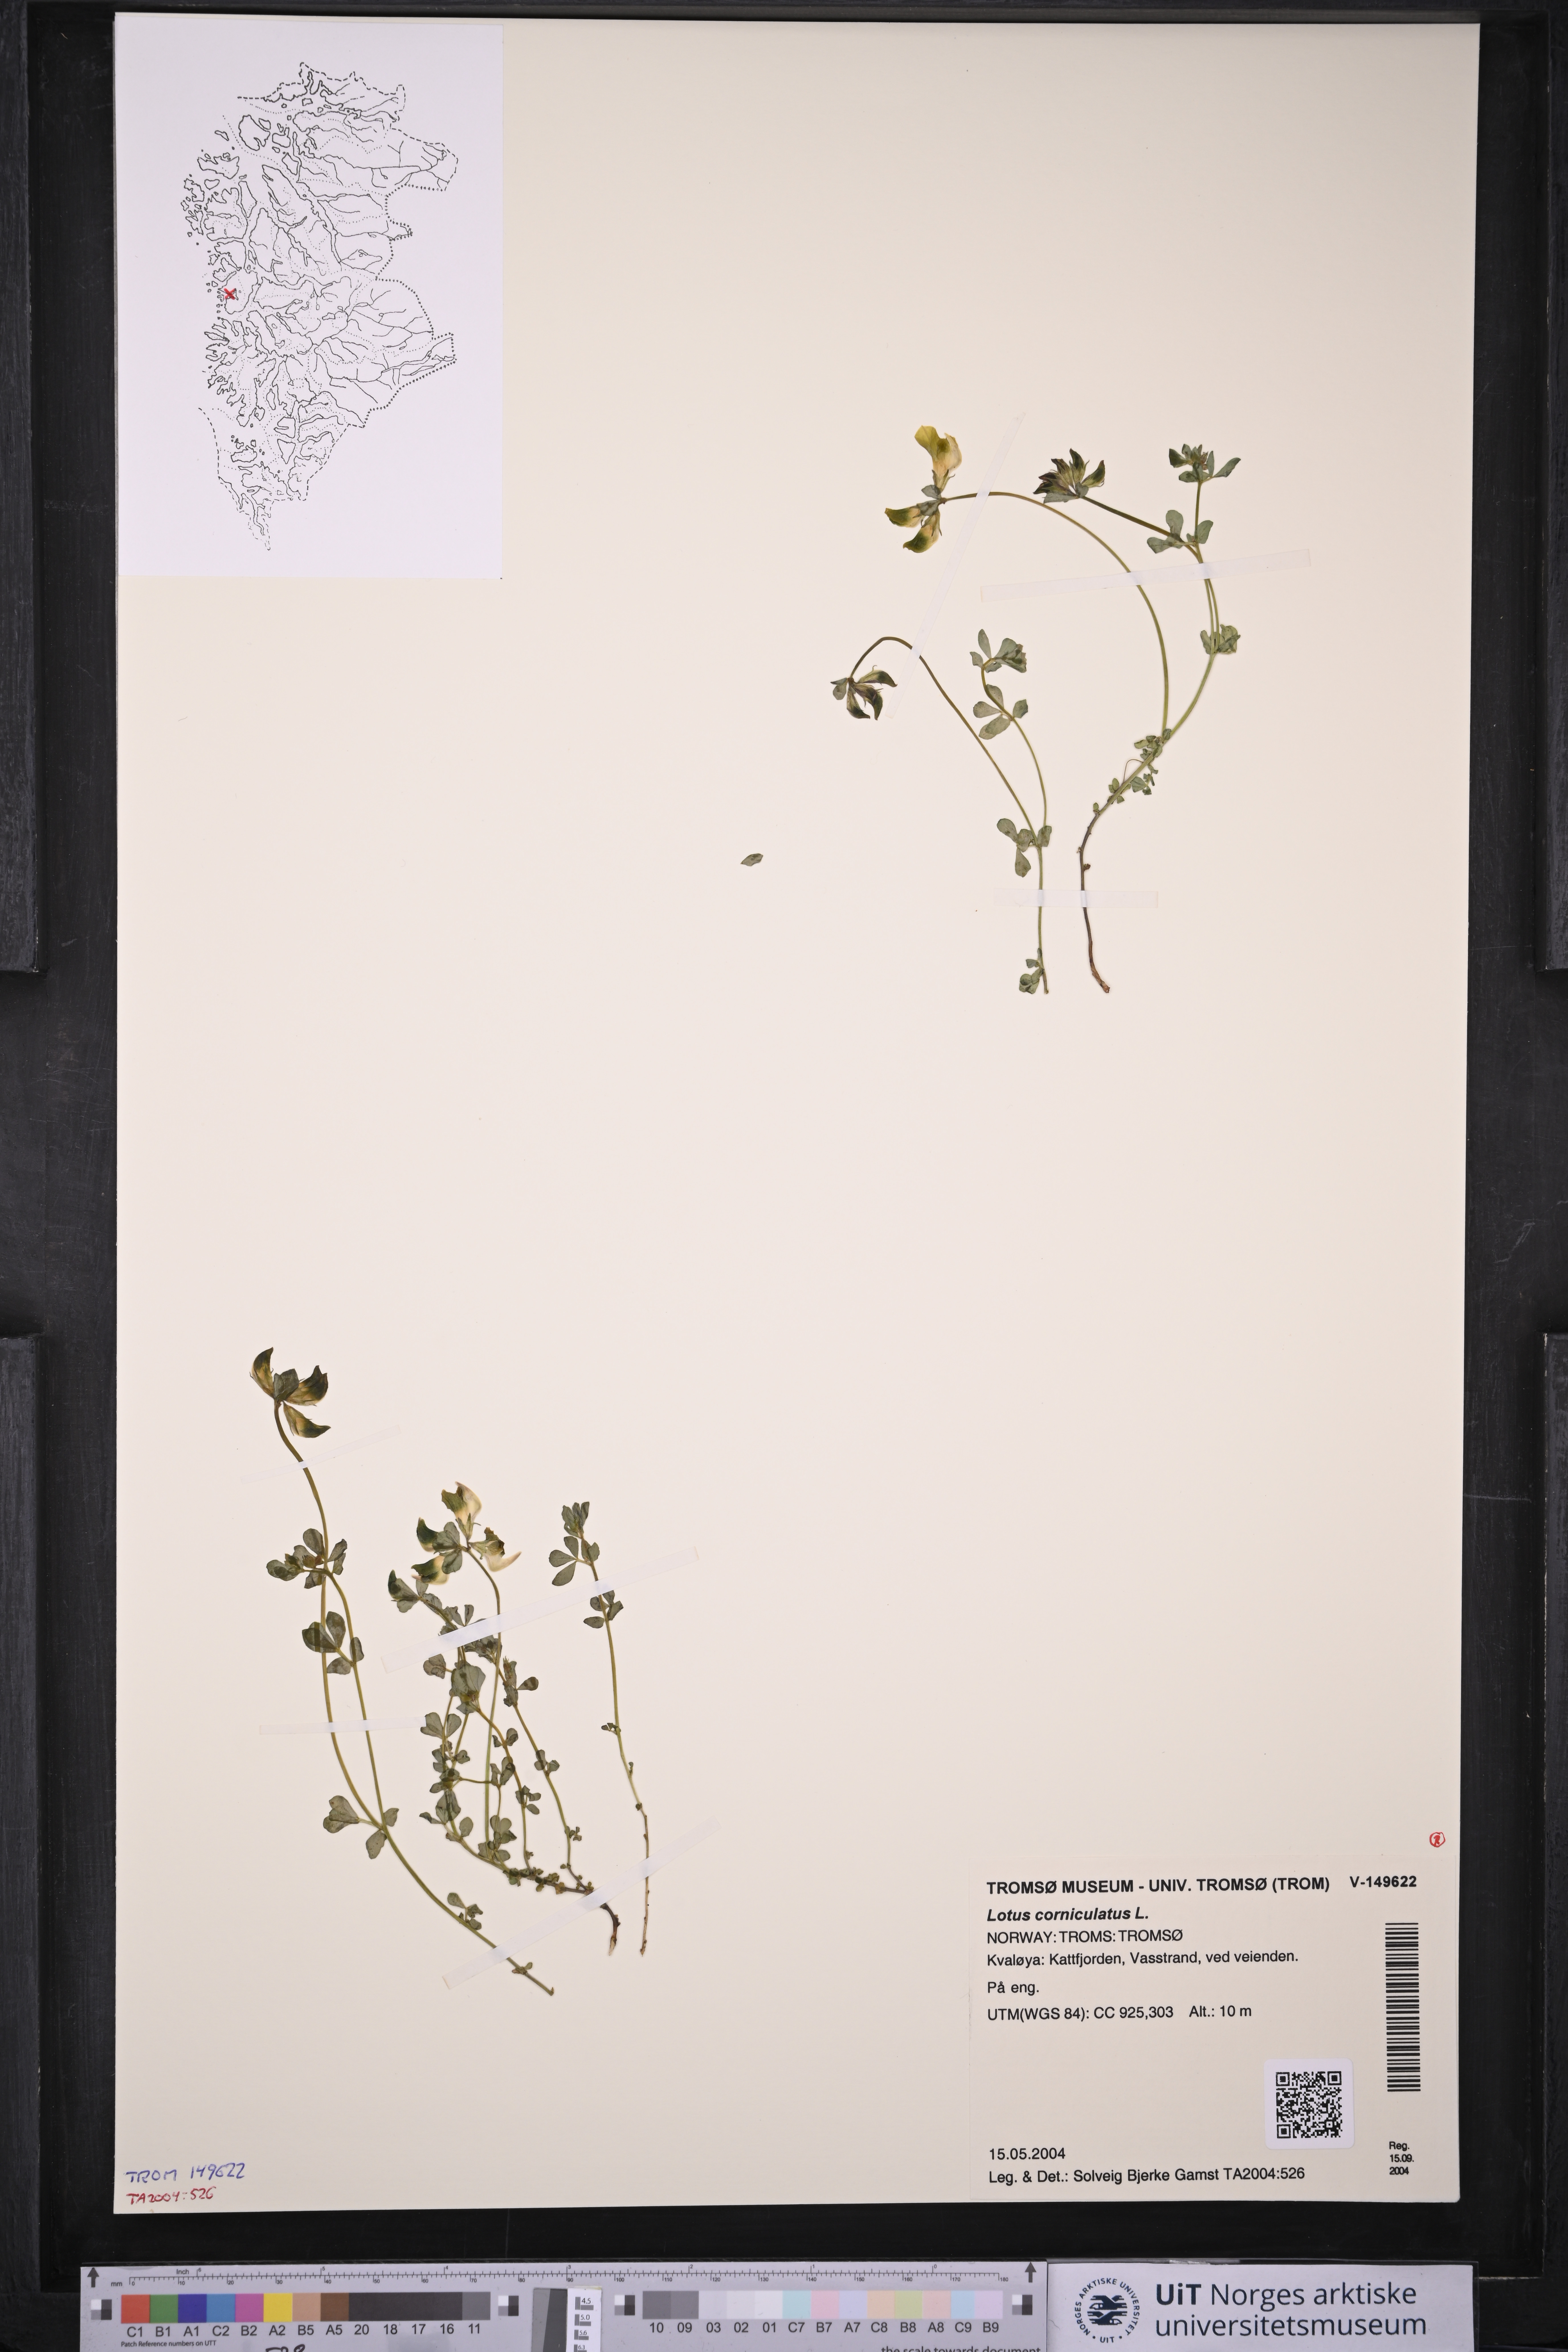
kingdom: Plantae
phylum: Tracheophyta
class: Magnoliopsida
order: Fabales
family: Fabaceae
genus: Lotus
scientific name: Lotus corniculatus
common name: Common bird's-foot-trefoil
